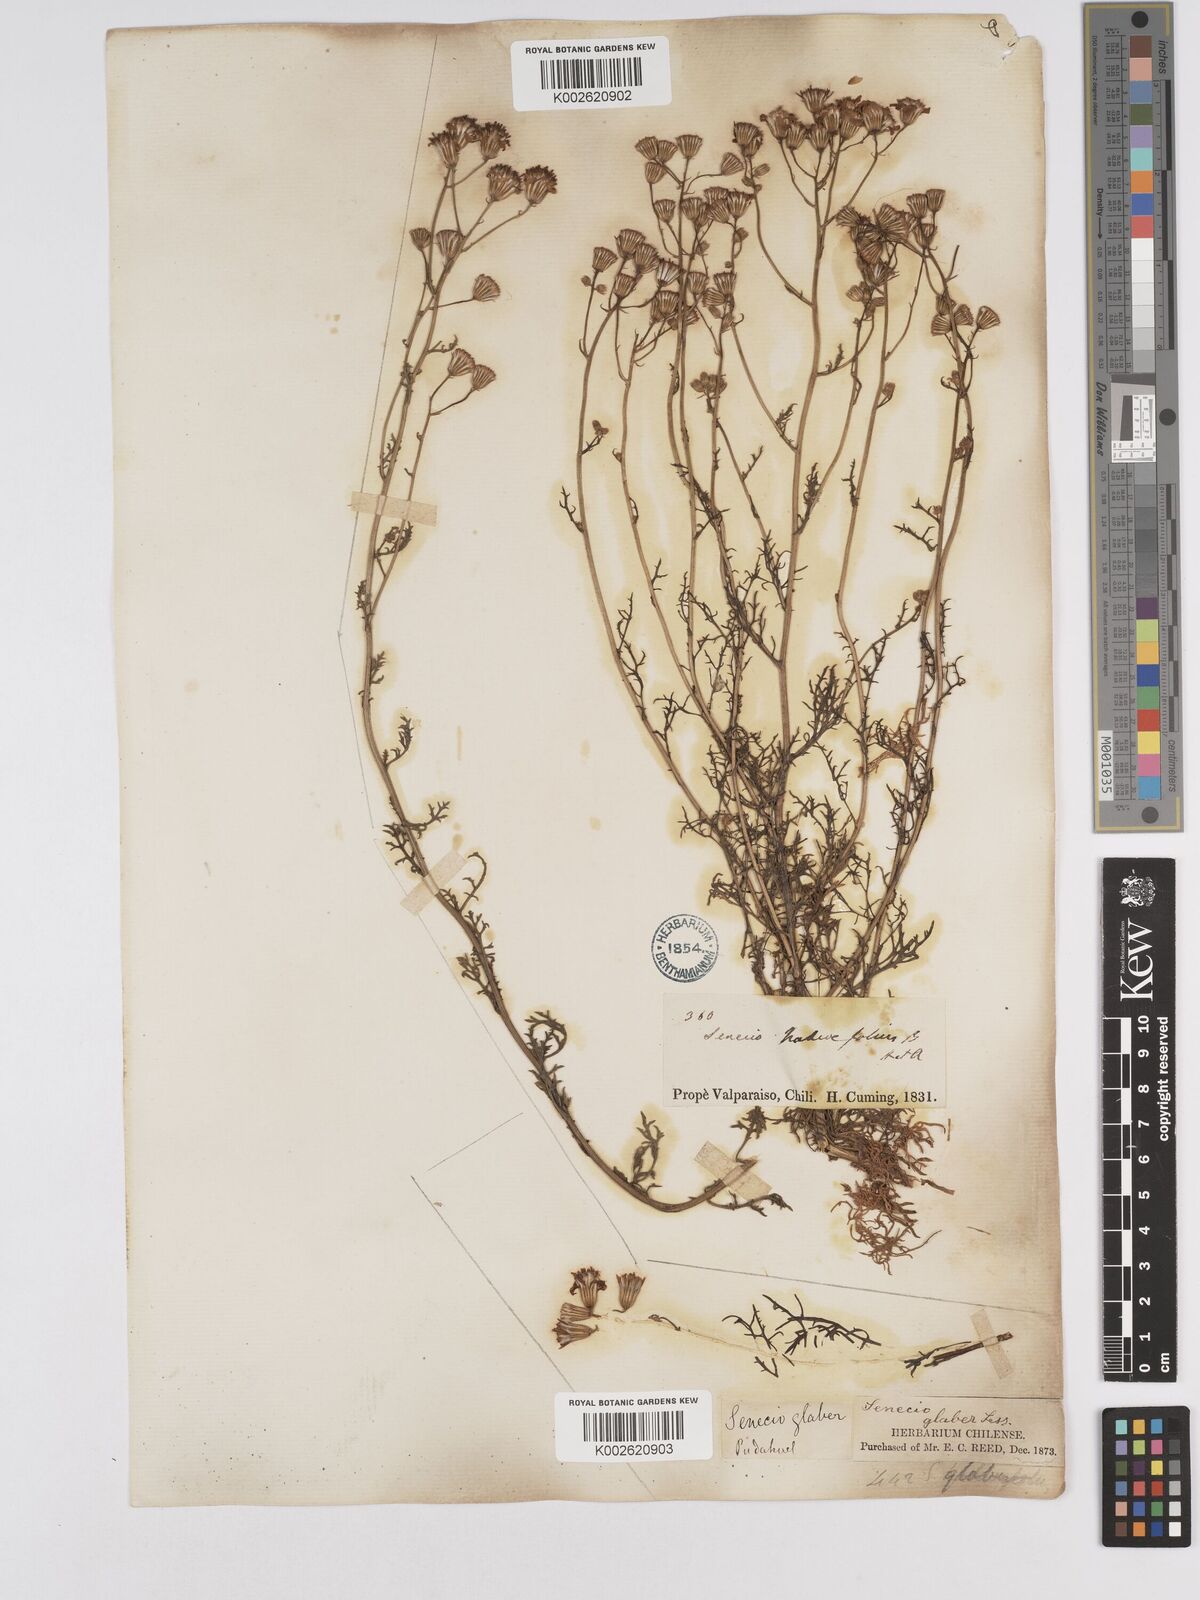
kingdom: Plantae
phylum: Tracheophyta
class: Magnoliopsida
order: Asterales
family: Asteraceae
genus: Senecio
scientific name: Senecio glaber
